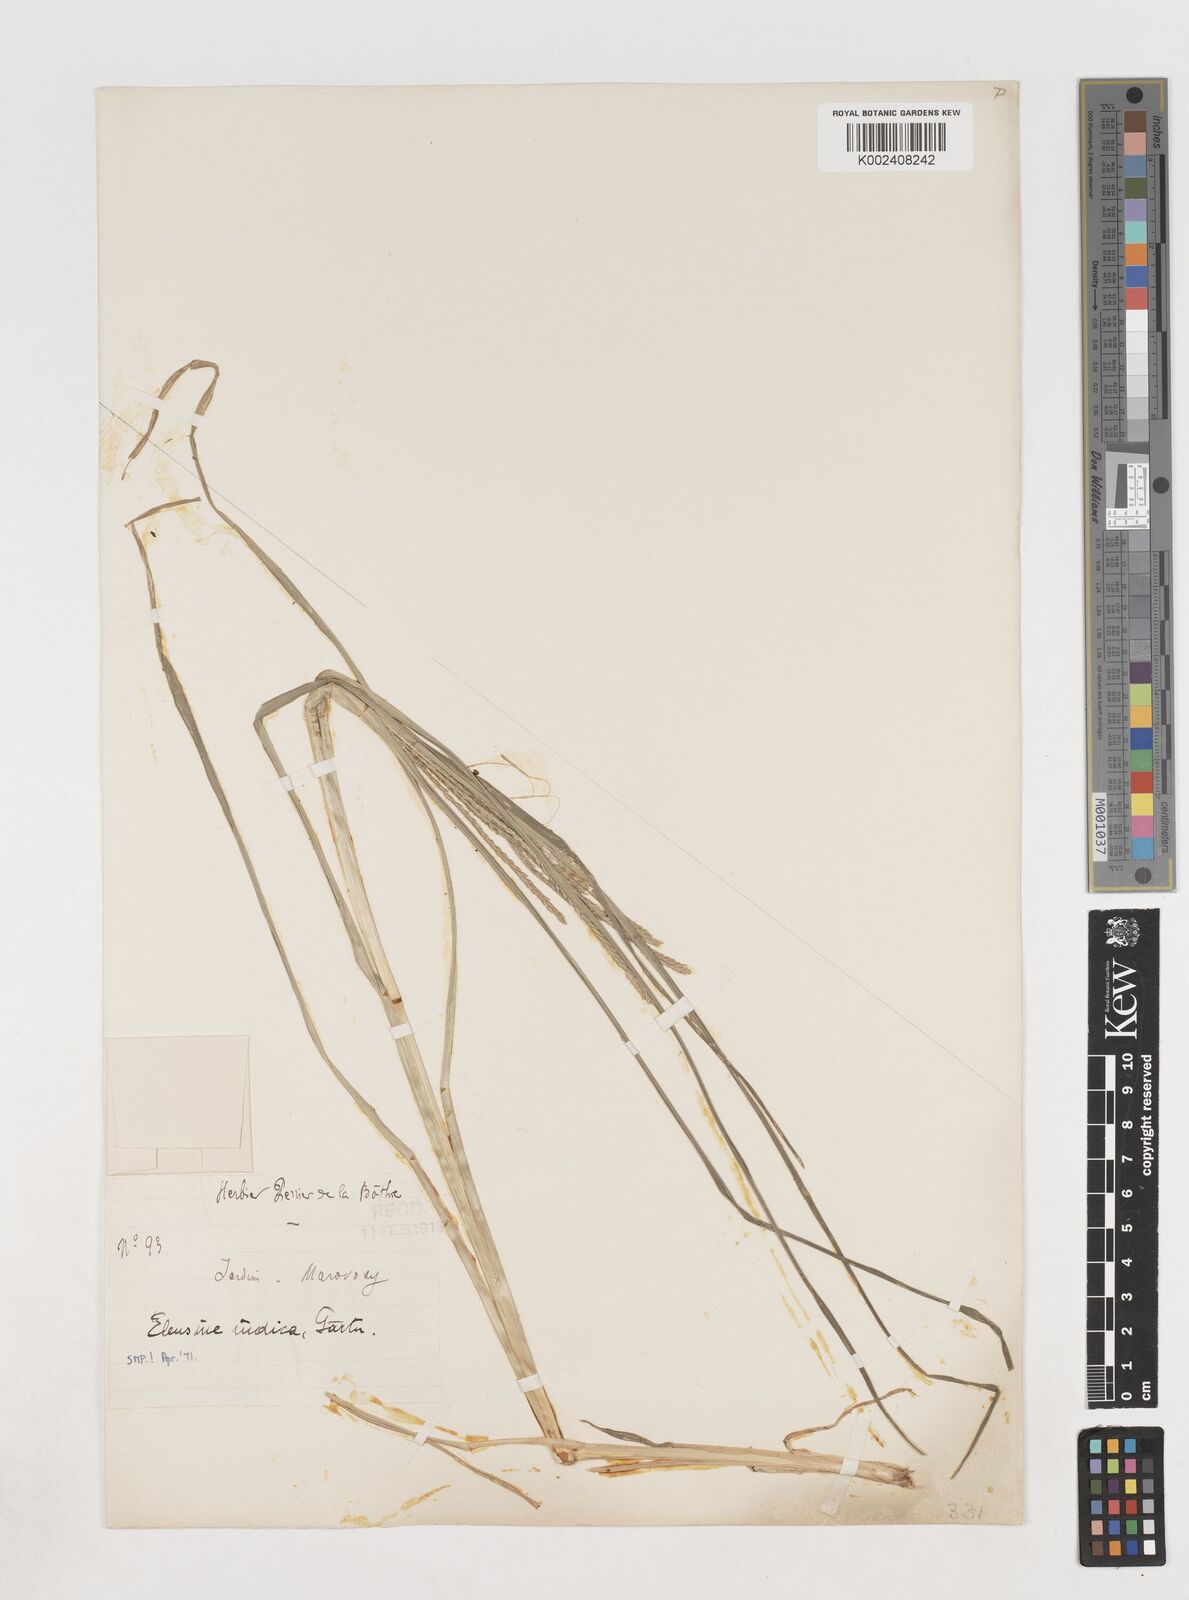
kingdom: Plantae
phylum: Tracheophyta
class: Liliopsida
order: Poales
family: Poaceae
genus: Eleusine
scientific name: Eleusine indica
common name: Yard-grass
